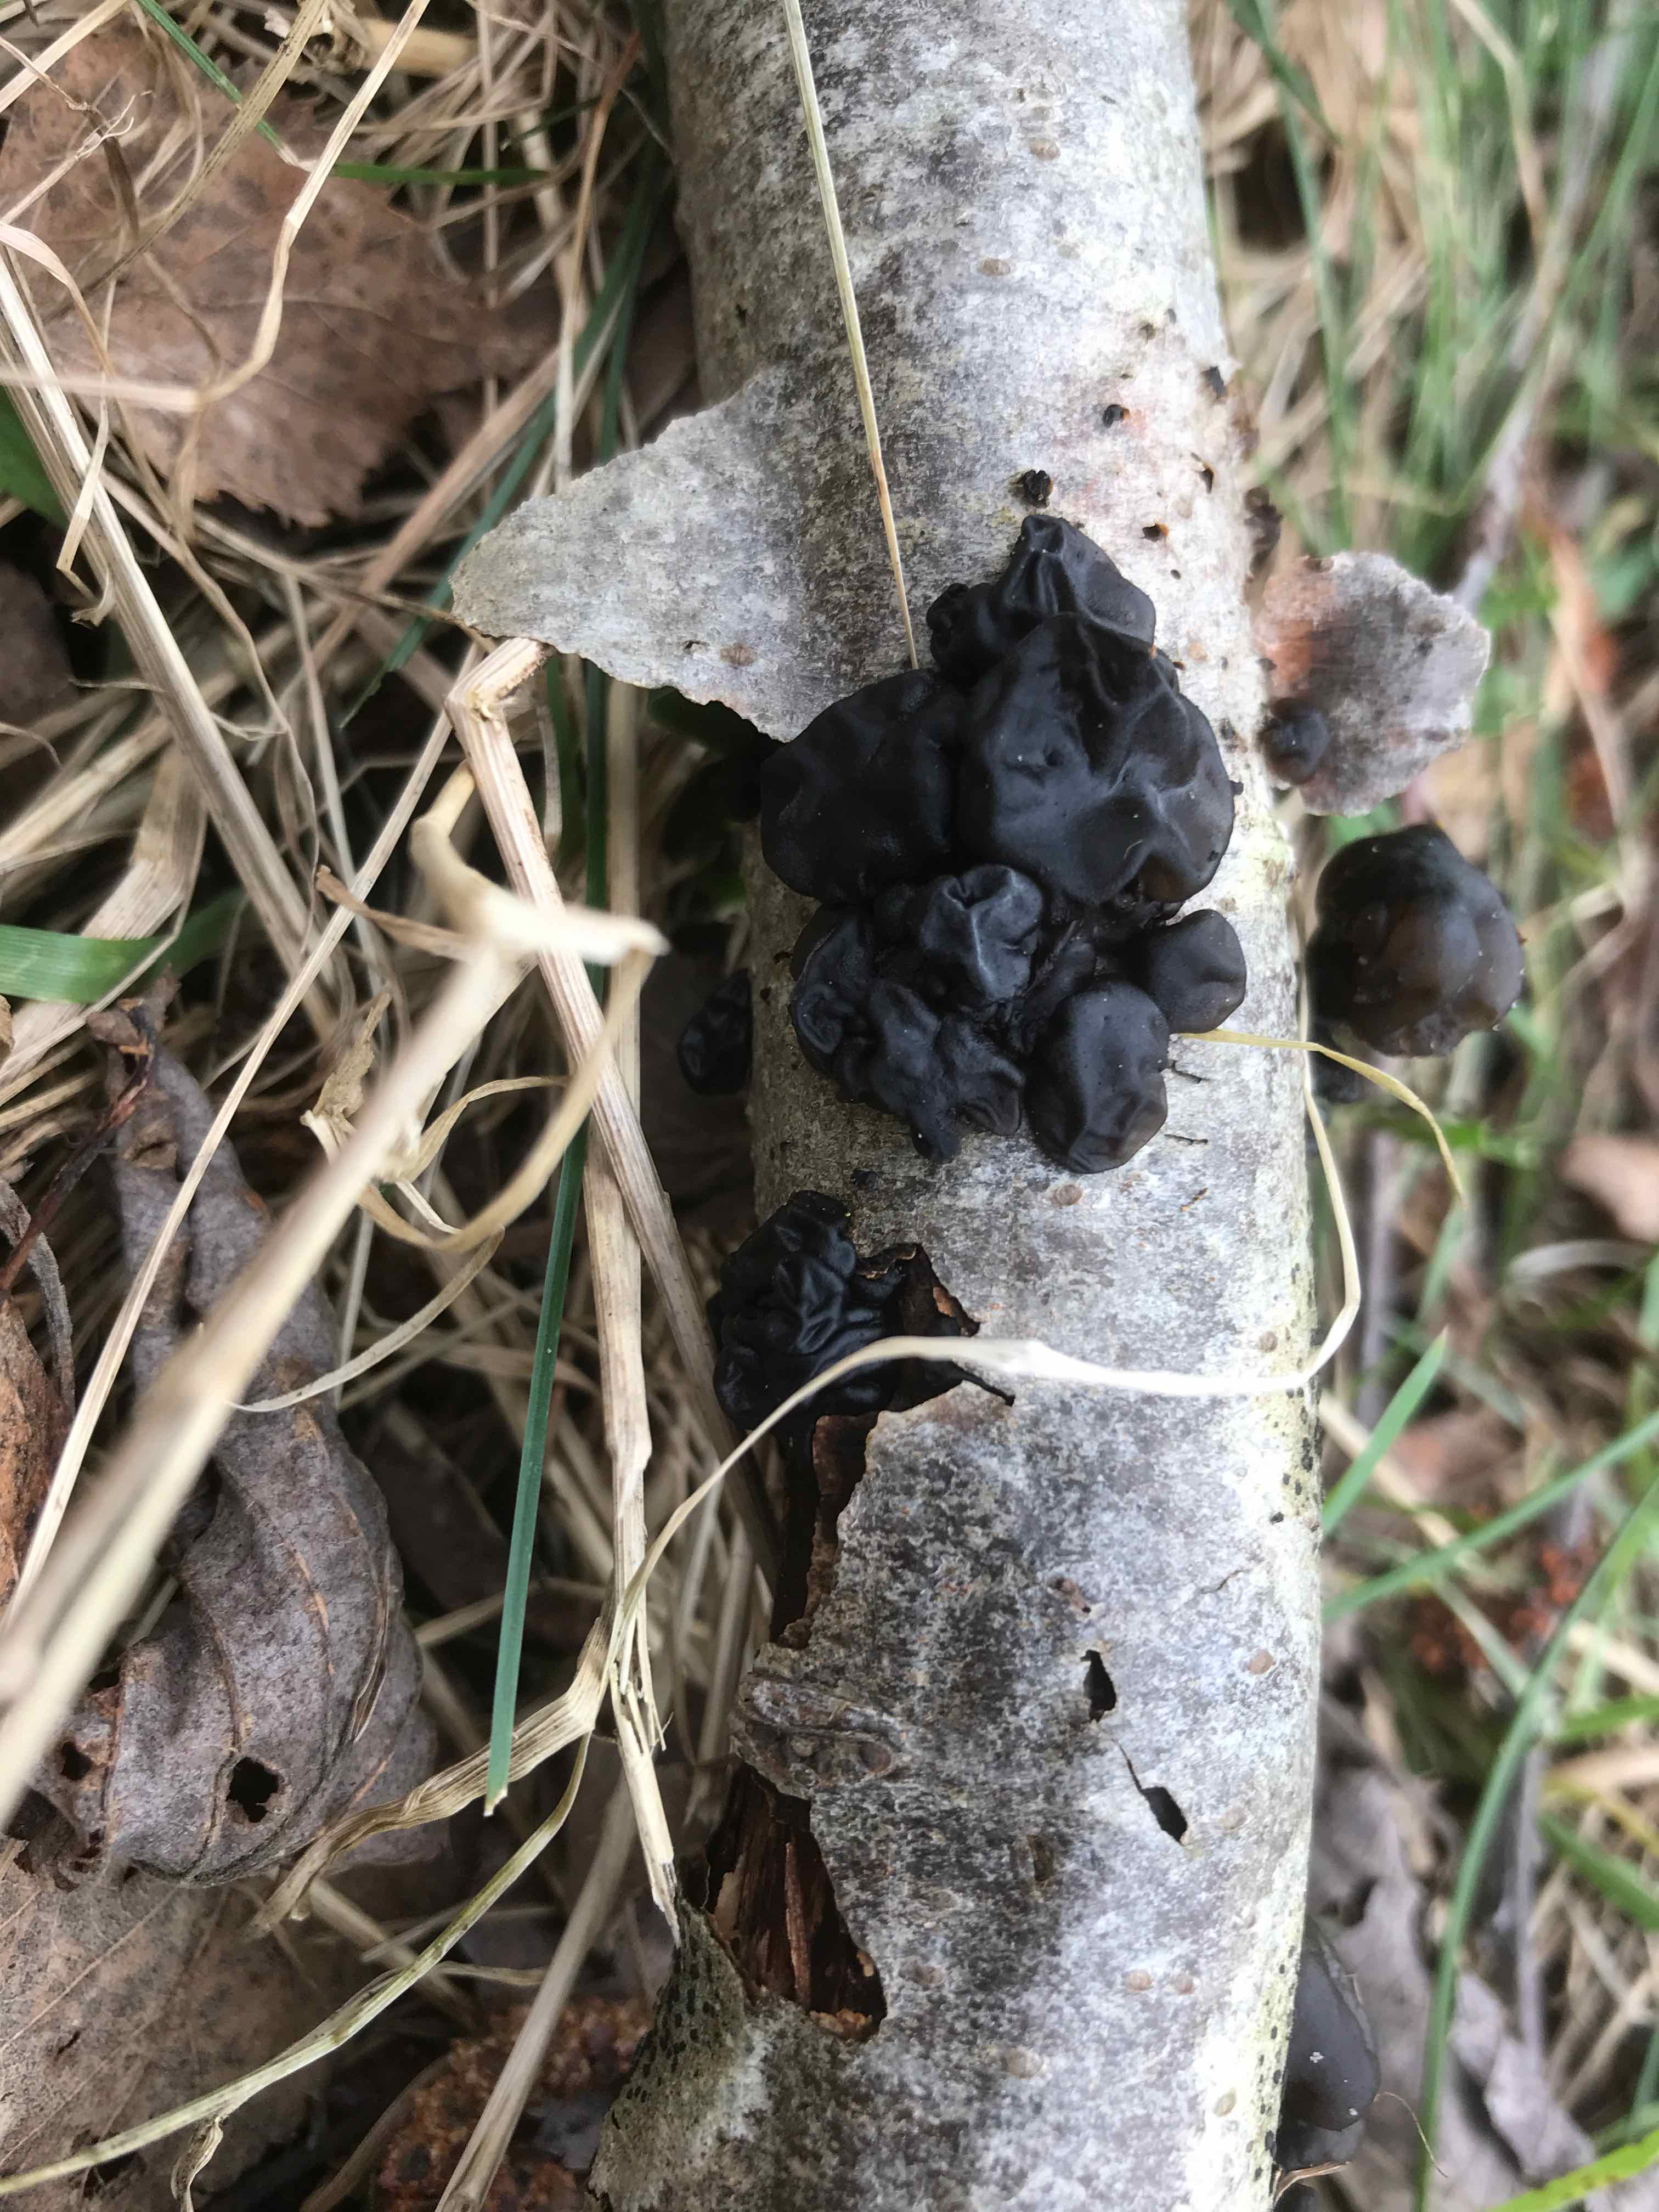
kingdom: Fungi
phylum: Basidiomycota
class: Agaricomycetes
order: Auriculariales
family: Auriculariaceae
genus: Exidia
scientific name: Exidia glandulosa
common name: ege-bævretop
